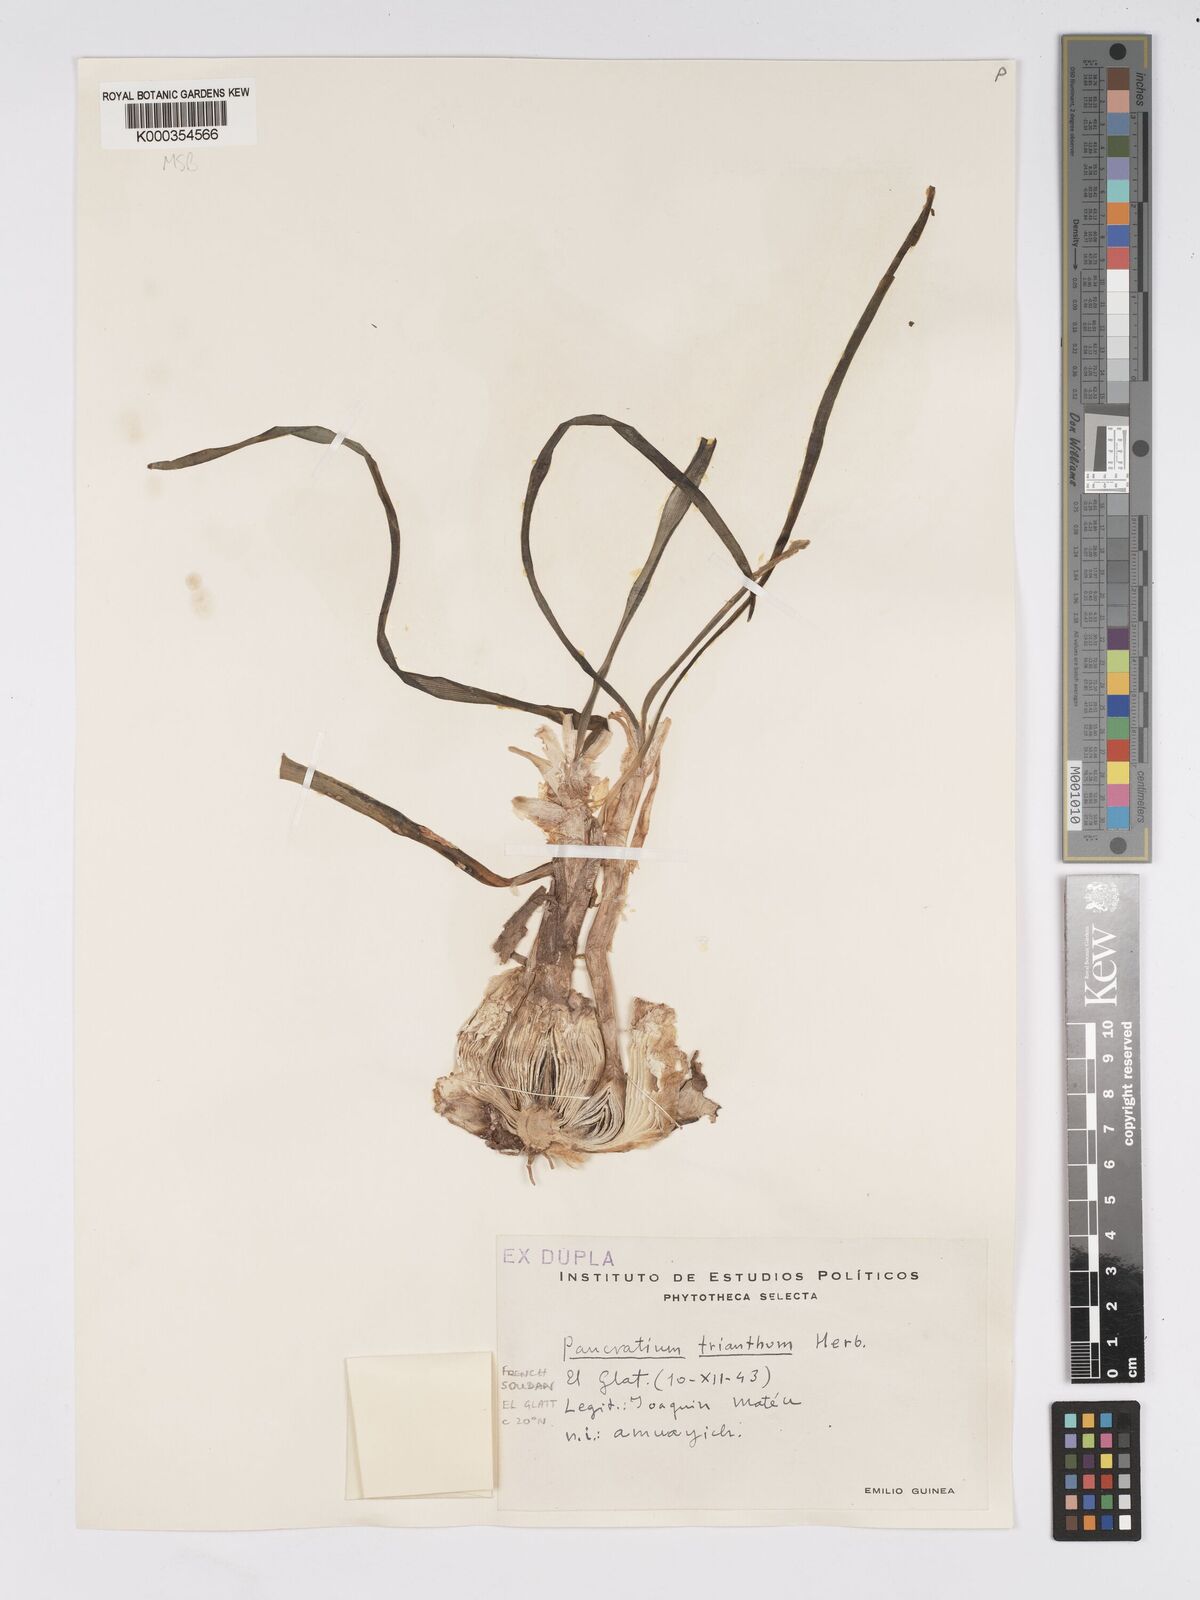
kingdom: Plantae
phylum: Tracheophyta
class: Liliopsida
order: Asparagales
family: Amaryllidaceae
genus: Pancratium
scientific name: Pancratium trianthum
